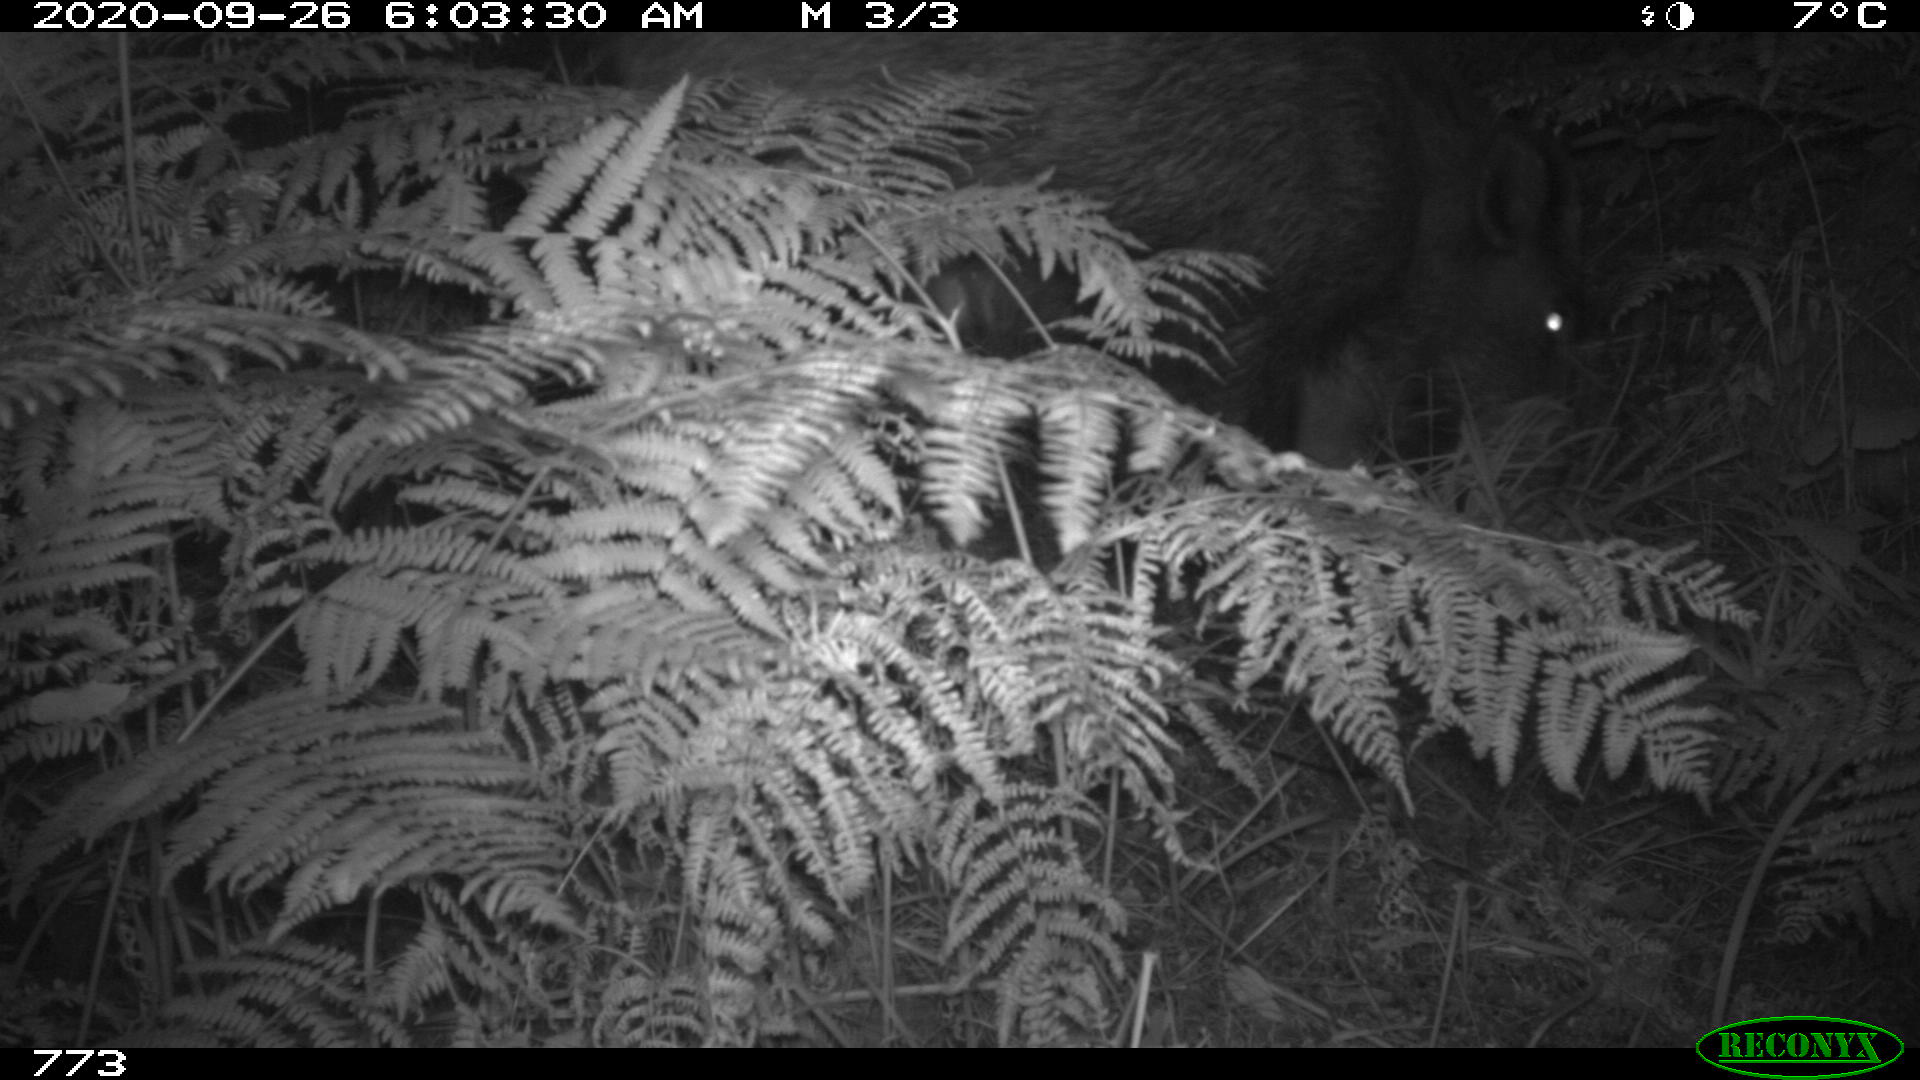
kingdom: Animalia
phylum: Chordata
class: Mammalia
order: Artiodactyla
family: Suidae
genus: Sus
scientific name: Sus scrofa
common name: Wild boar
